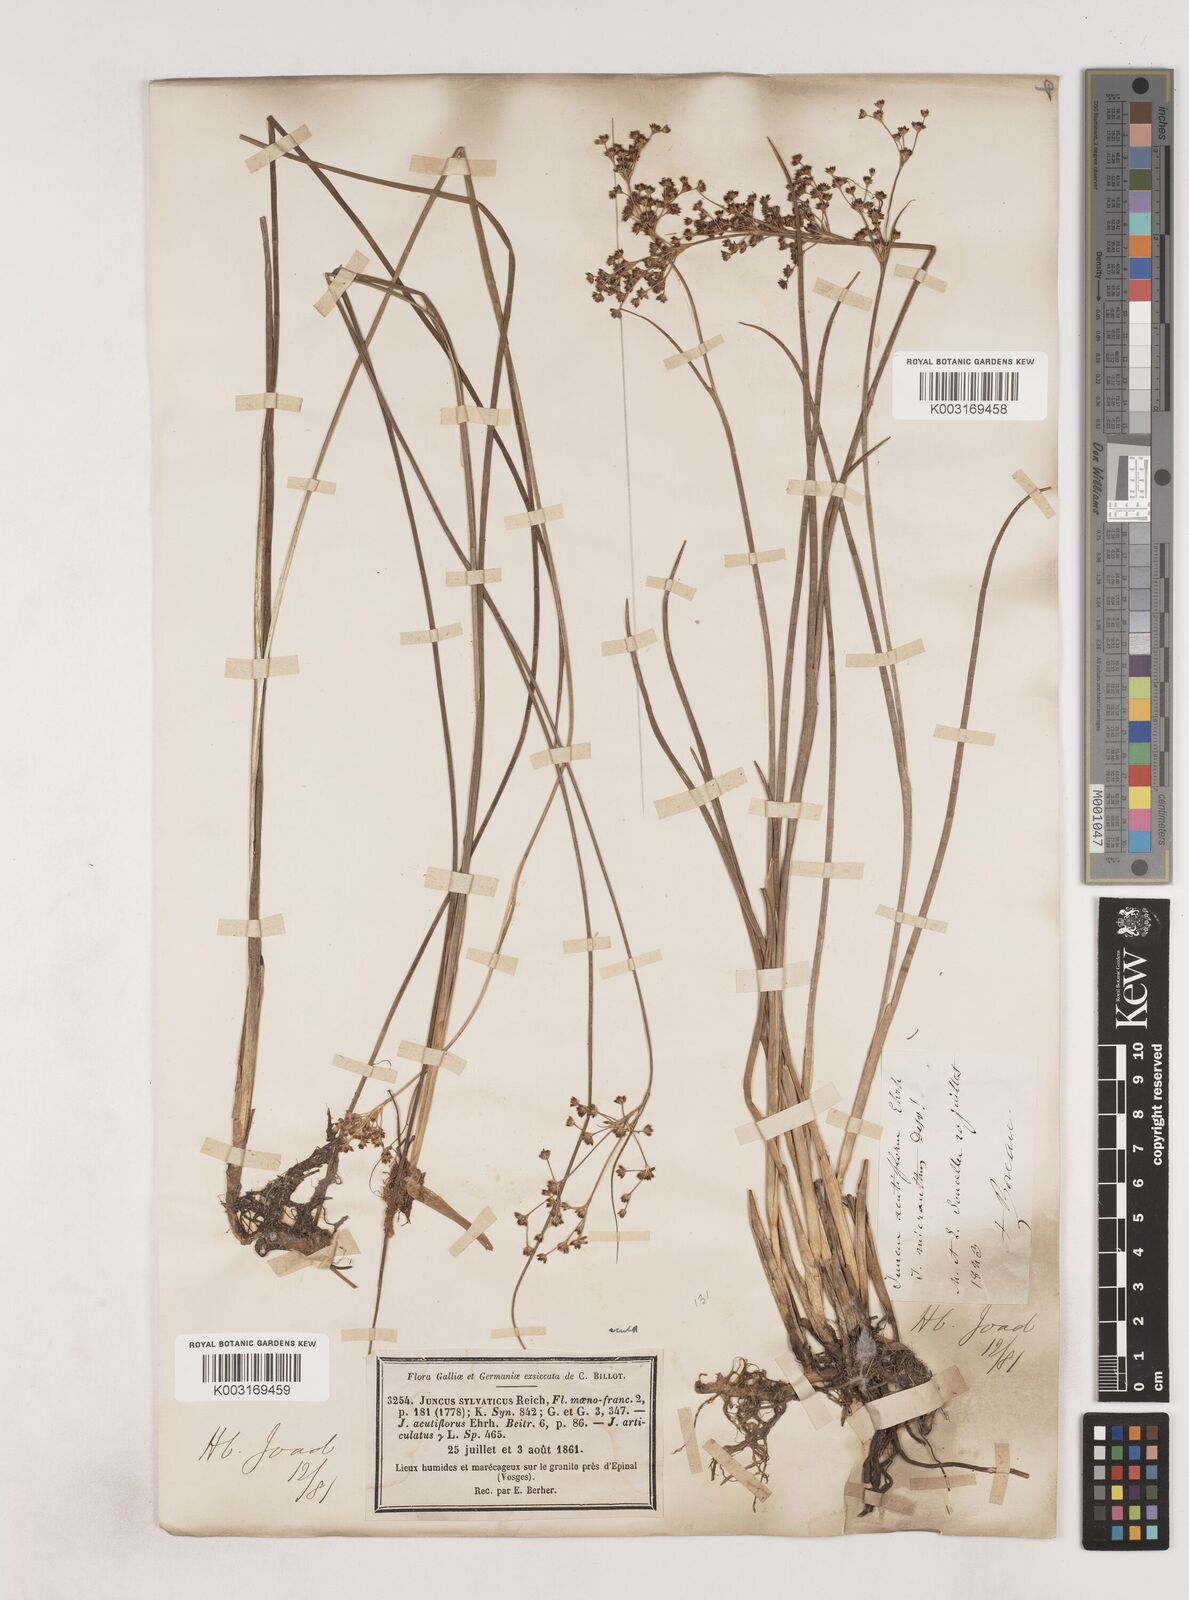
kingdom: Plantae
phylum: Tracheophyta
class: Liliopsida
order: Poales
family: Juncaceae
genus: Juncus
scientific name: Juncus acutiflorus
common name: Sharp-flowered rush
